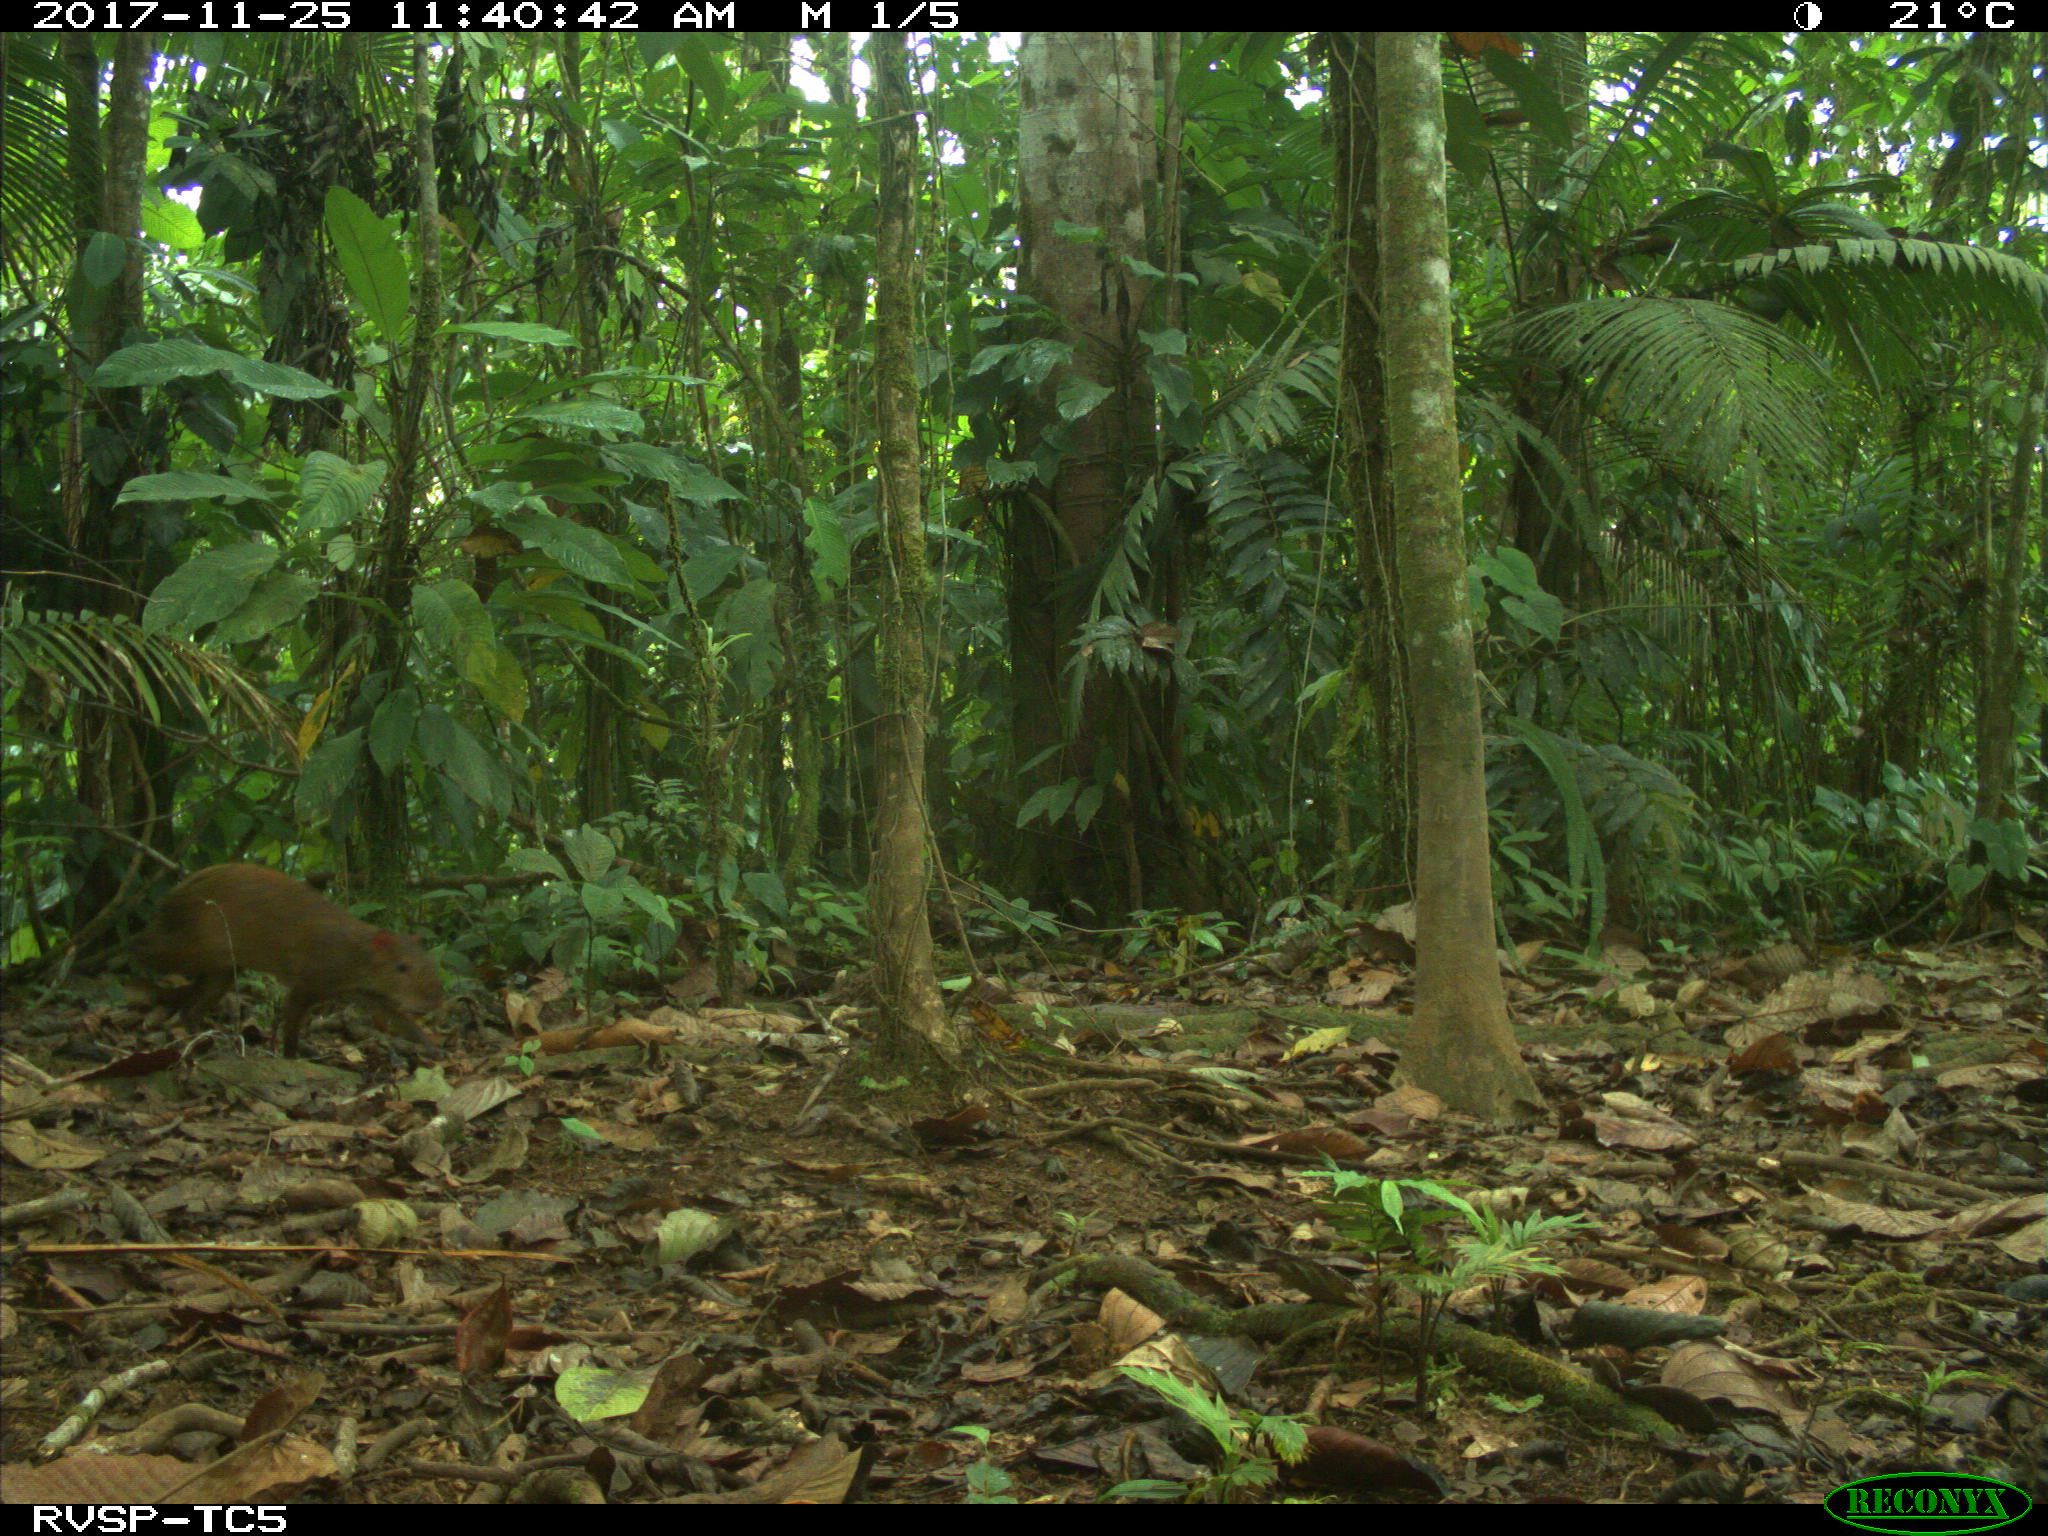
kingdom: Animalia
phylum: Chordata
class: Mammalia
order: Rodentia
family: Dasyproctidae
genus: Dasyprocta
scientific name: Dasyprocta punctata
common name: Central american agouti
